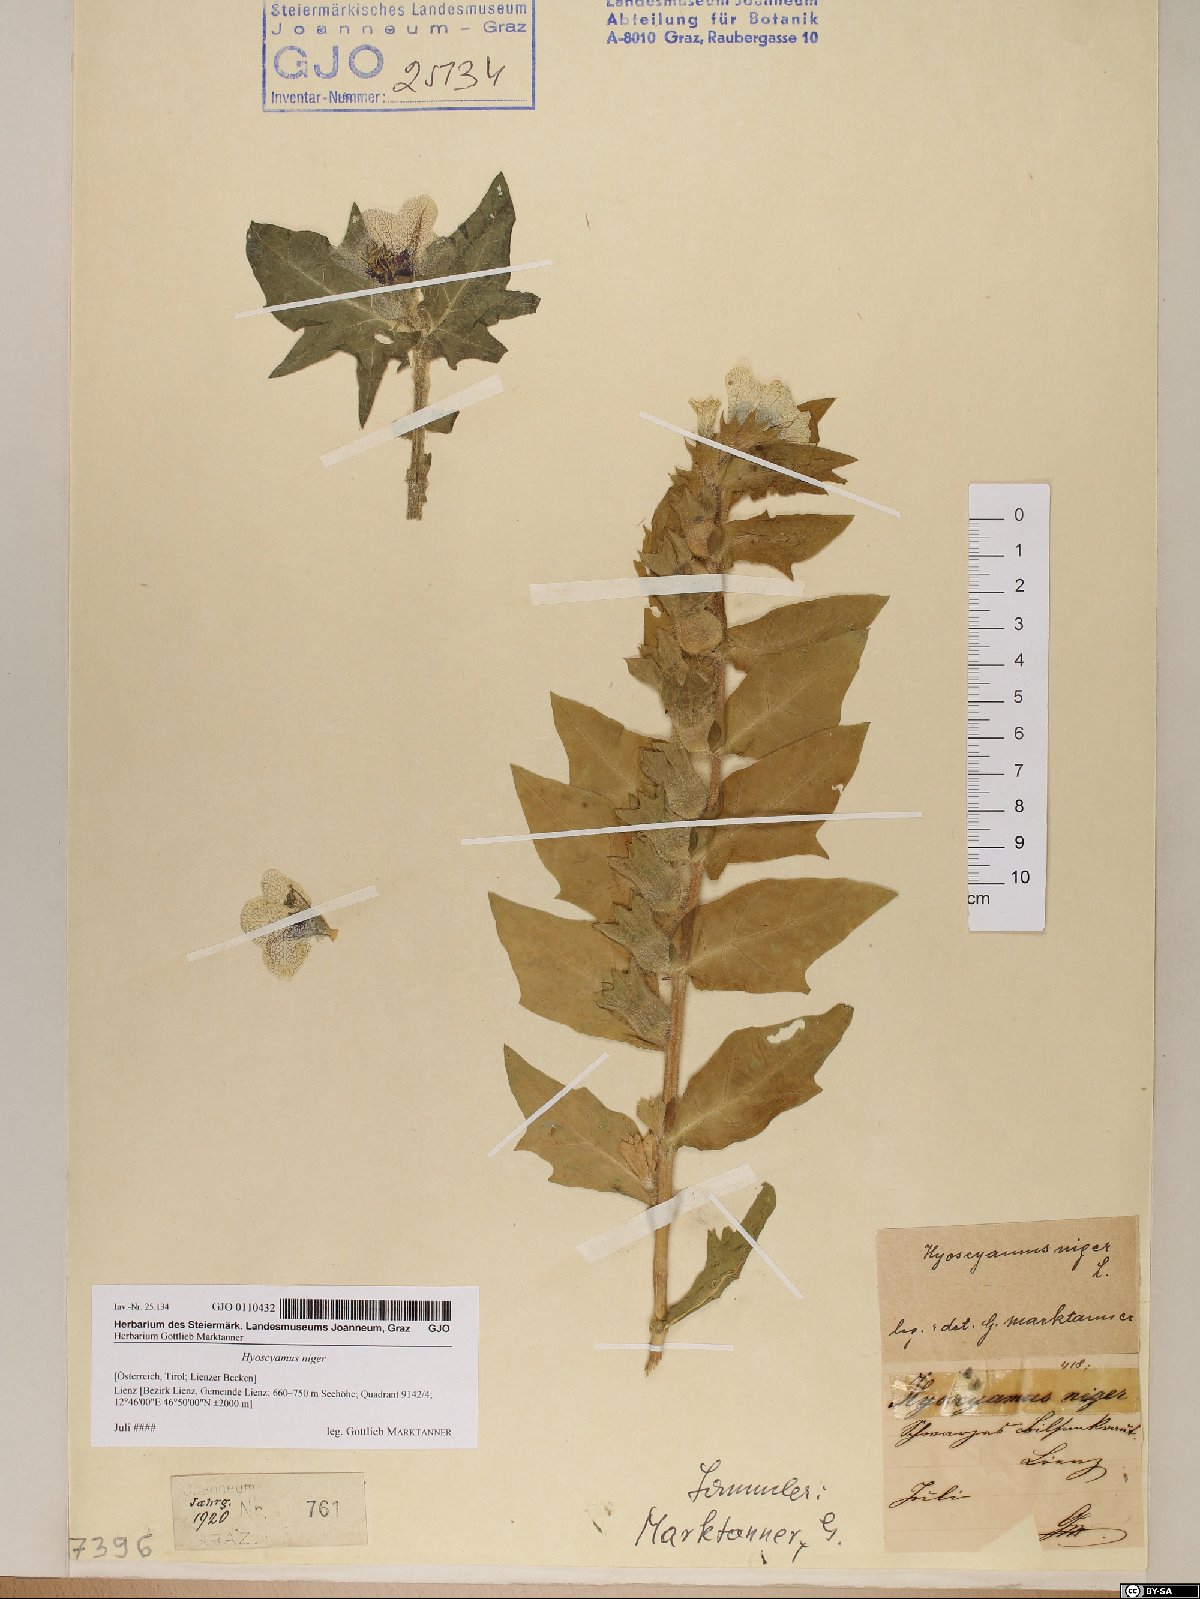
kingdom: Plantae
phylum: Tracheophyta
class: Magnoliopsida
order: Solanales
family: Solanaceae
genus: Hyoscyamus
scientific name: Hyoscyamus niger
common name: Henbane
